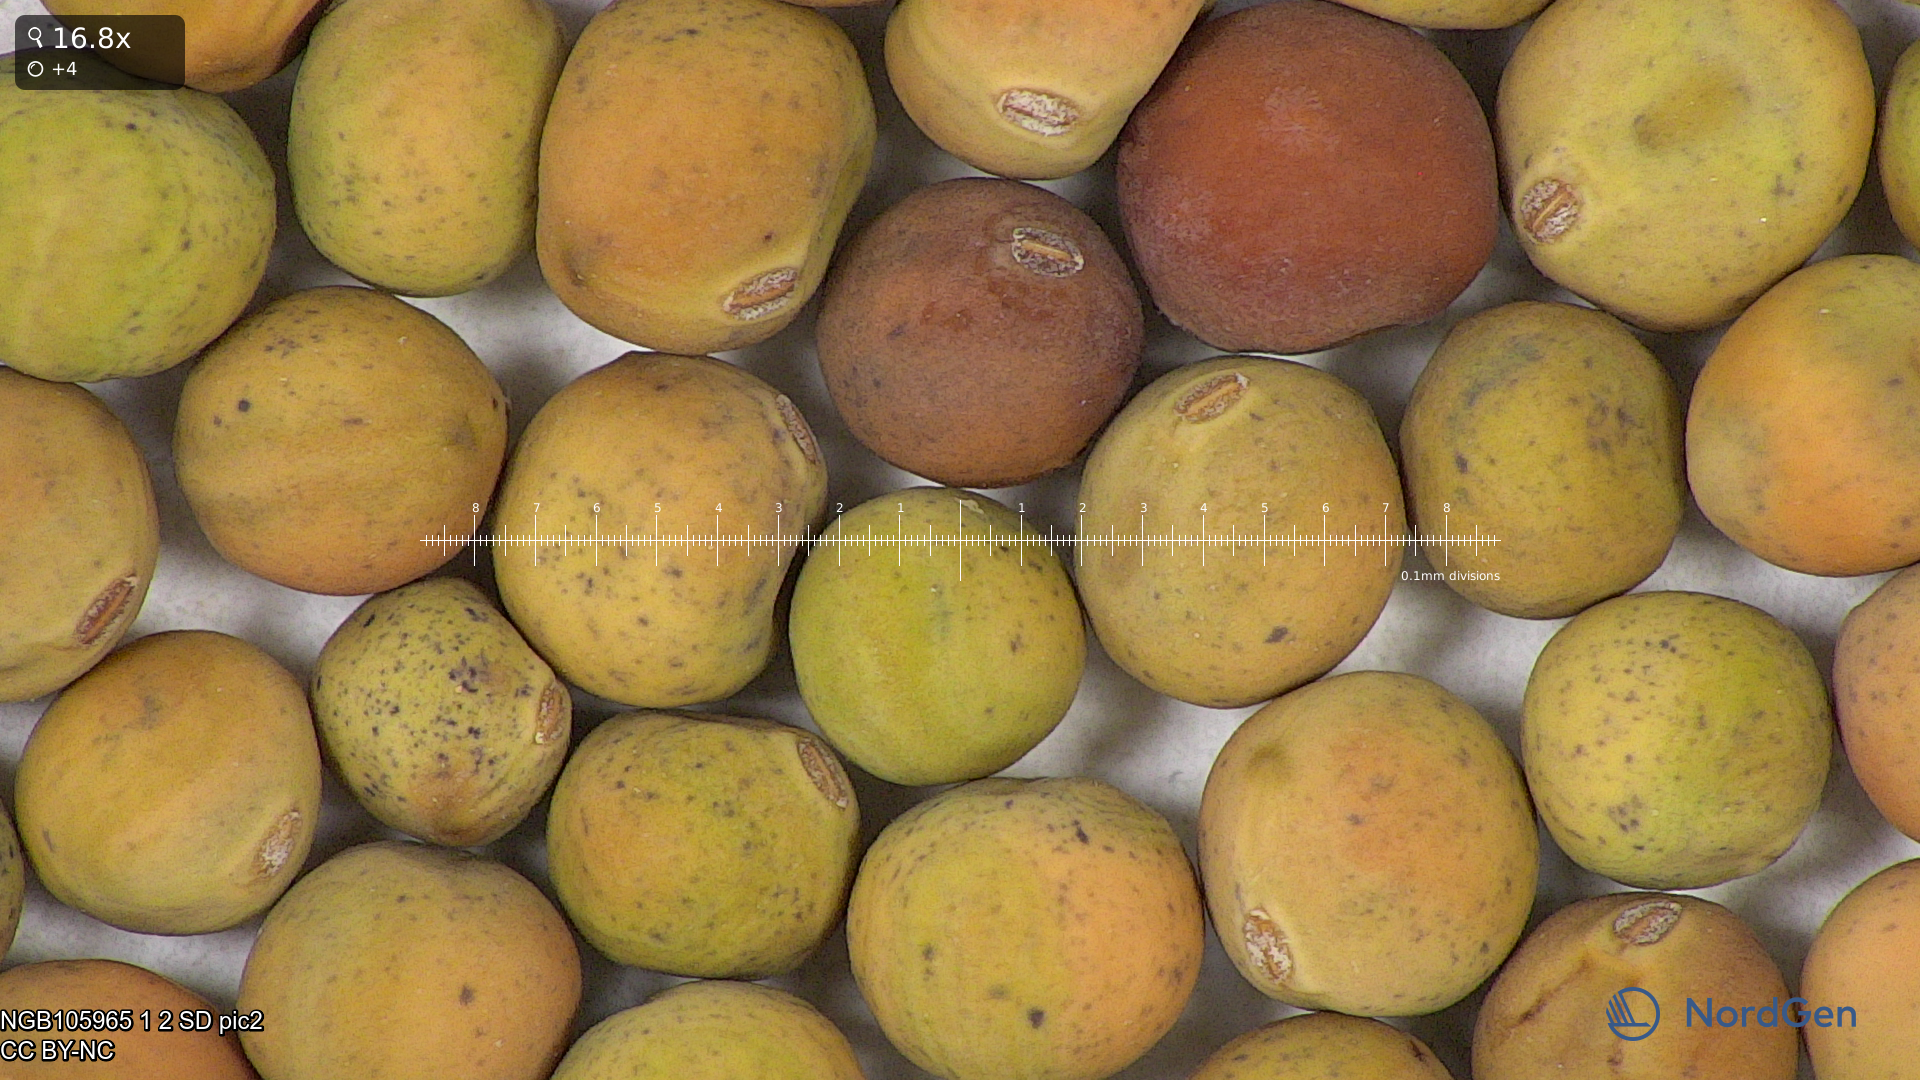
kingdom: Plantae
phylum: Tracheophyta
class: Magnoliopsida
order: Fabales
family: Fabaceae
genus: Lathyrus
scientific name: Lathyrus oleraceus
